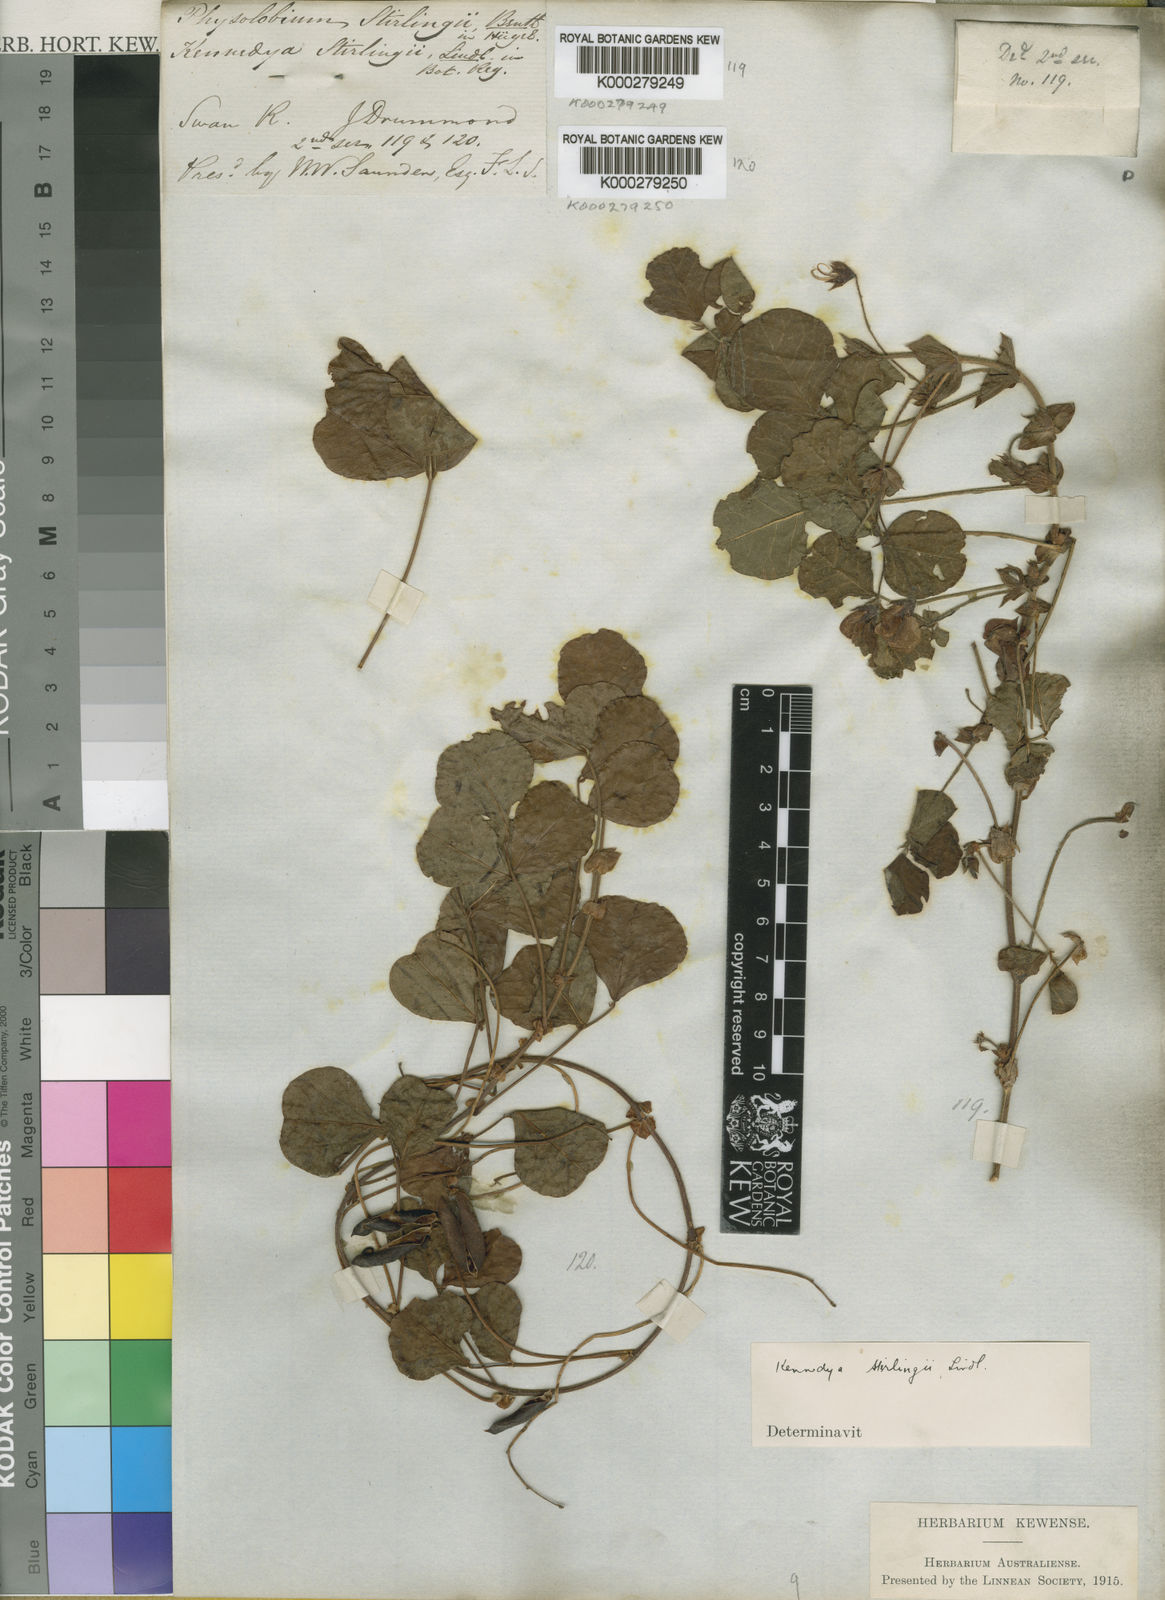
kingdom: Plantae
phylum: Tracheophyta
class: Magnoliopsida
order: Fabales
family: Fabaceae
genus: Kennedia
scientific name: Kennedia stirlingii
